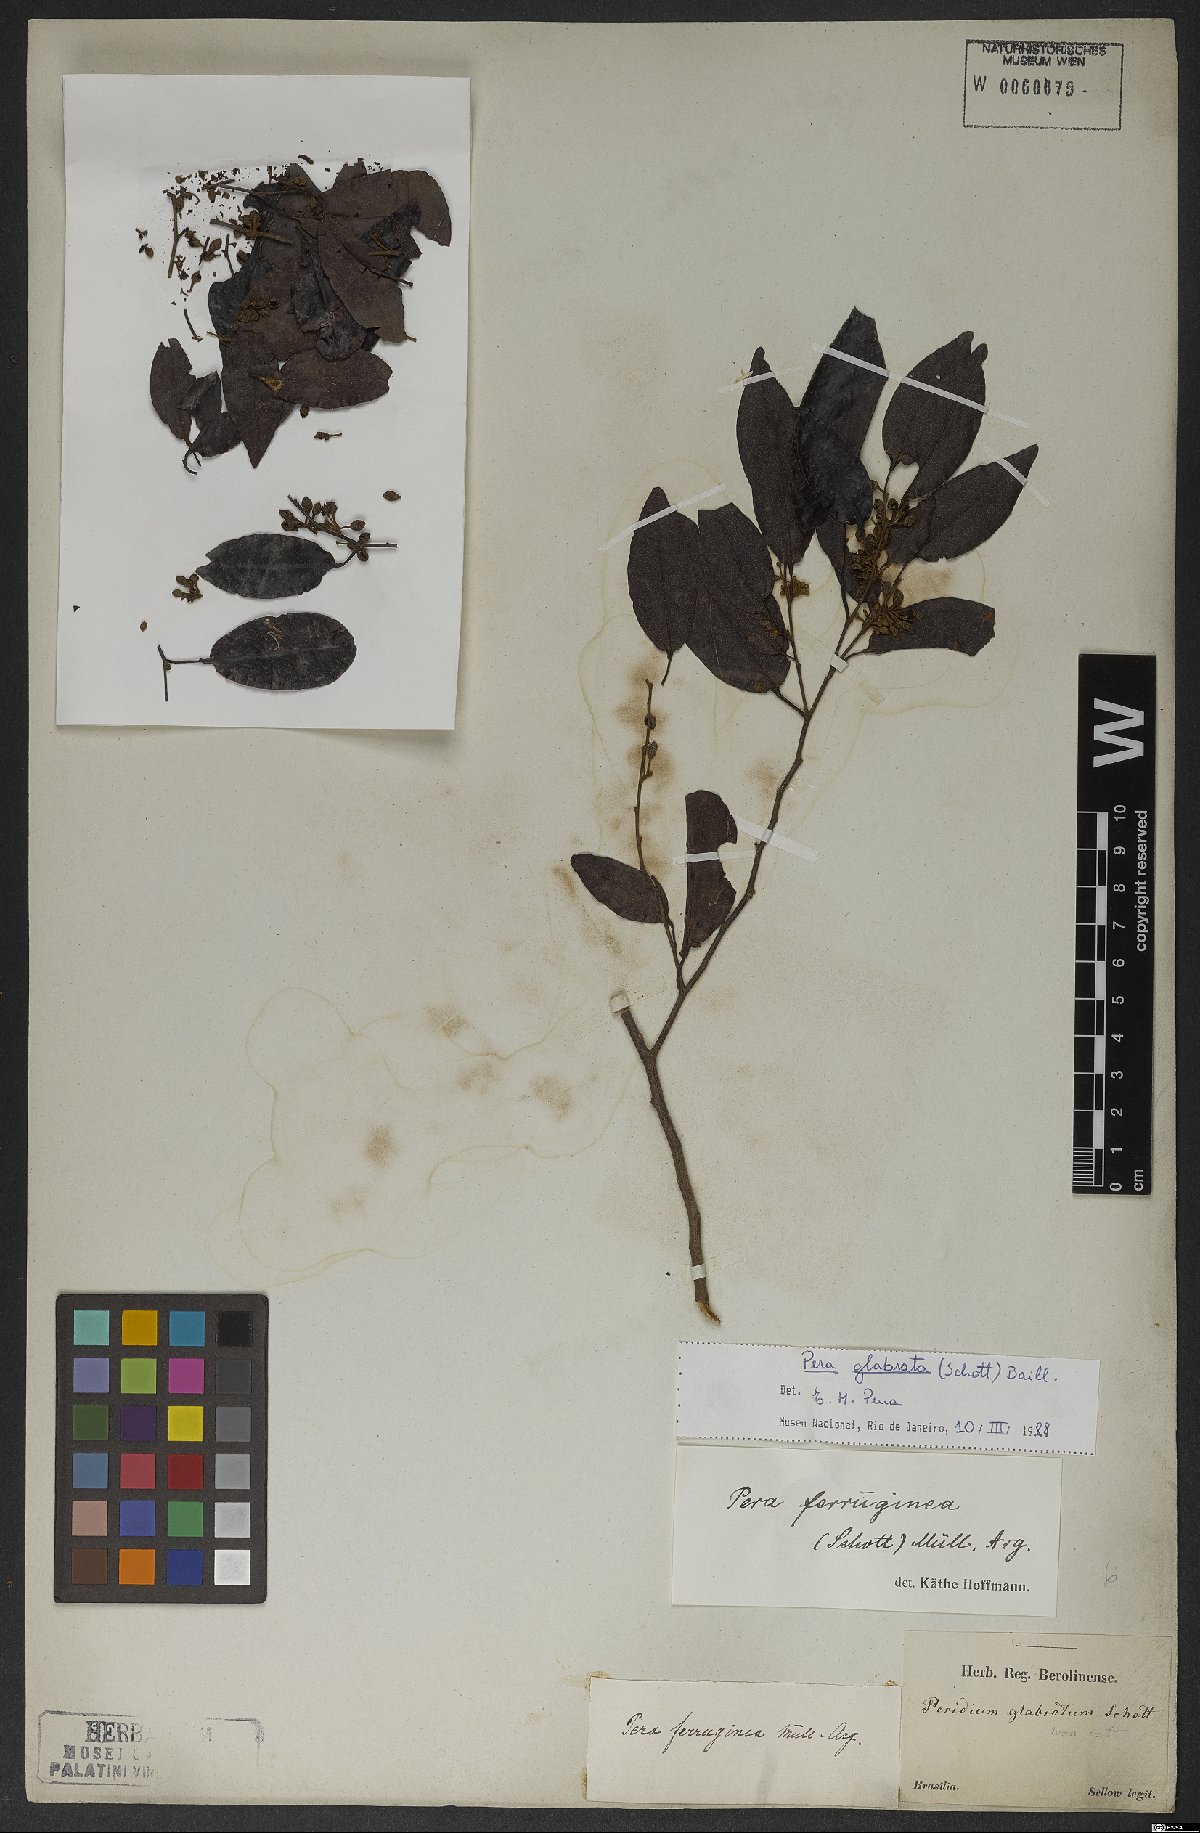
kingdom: Plantae
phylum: Tracheophyta
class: Magnoliopsida
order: Malpighiales
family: Peraceae
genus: Pera
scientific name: Pera glabrata
